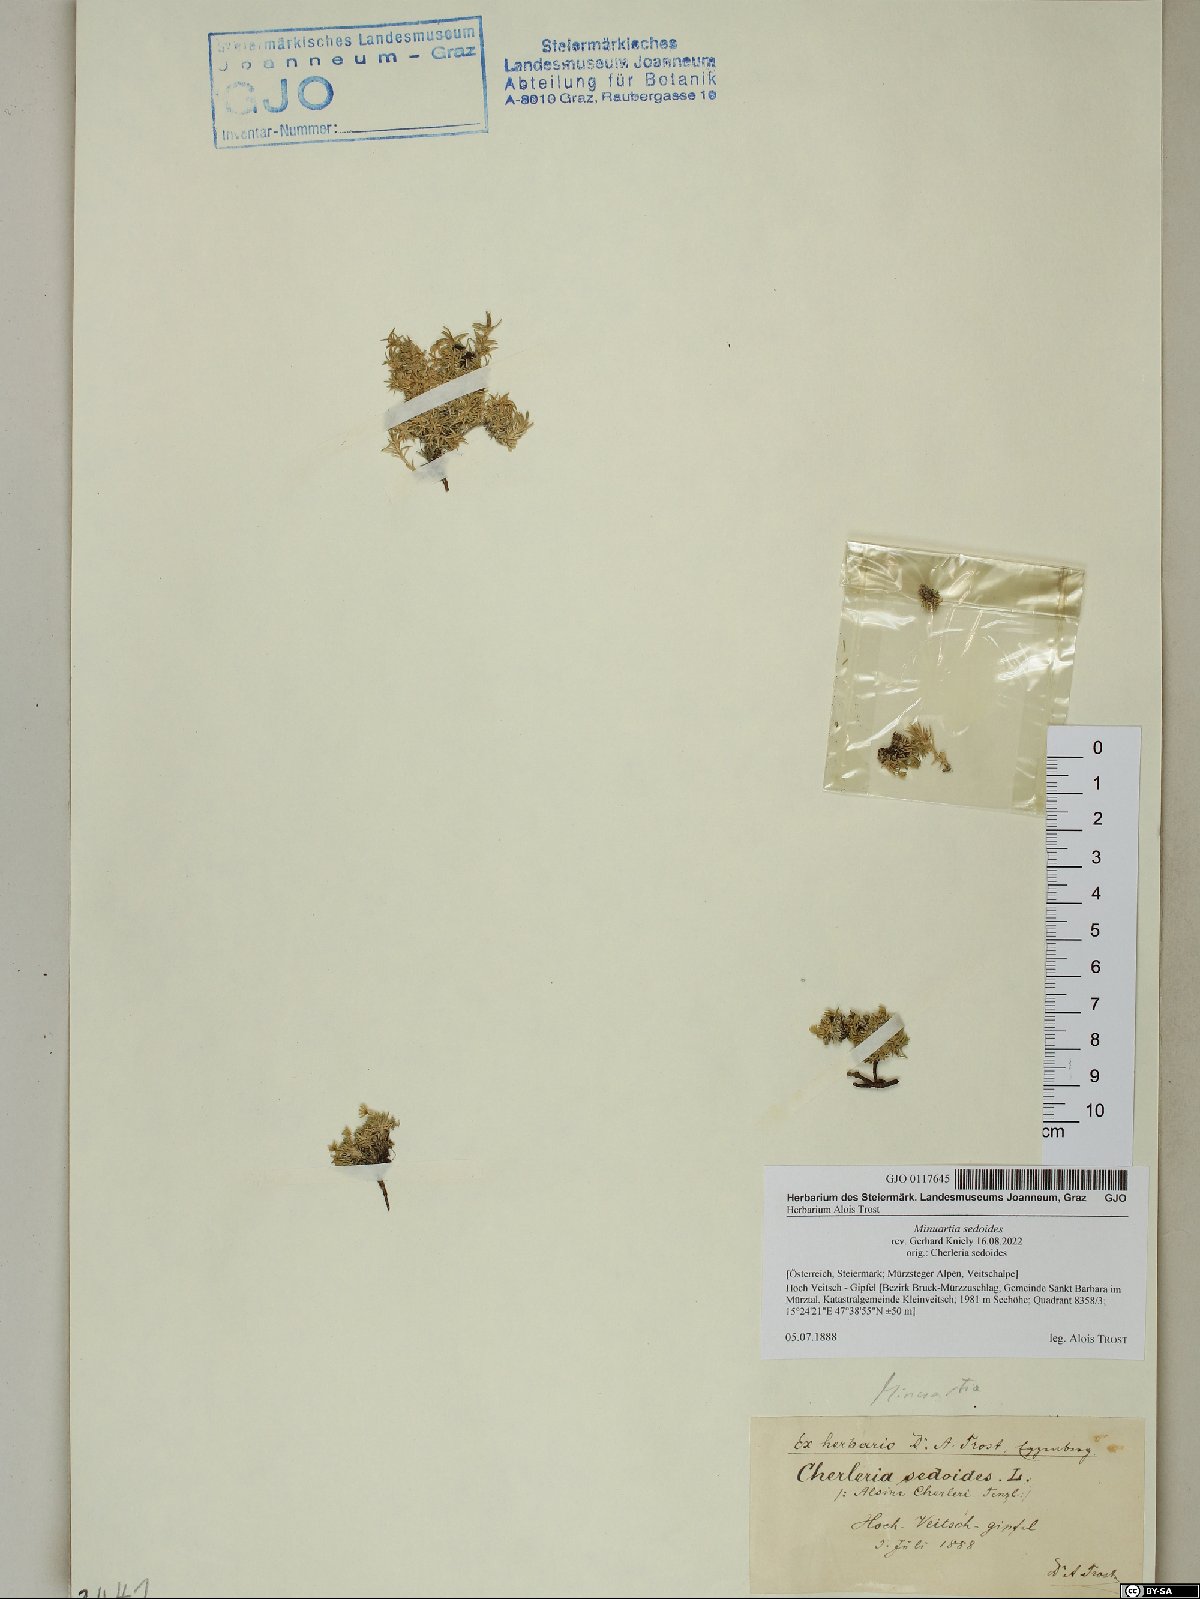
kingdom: Plantae
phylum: Tracheophyta
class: Magnoliopsida
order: Caryophyllales
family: Caryophyllaceae
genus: Cherleria
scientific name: Cherleria sedoides
